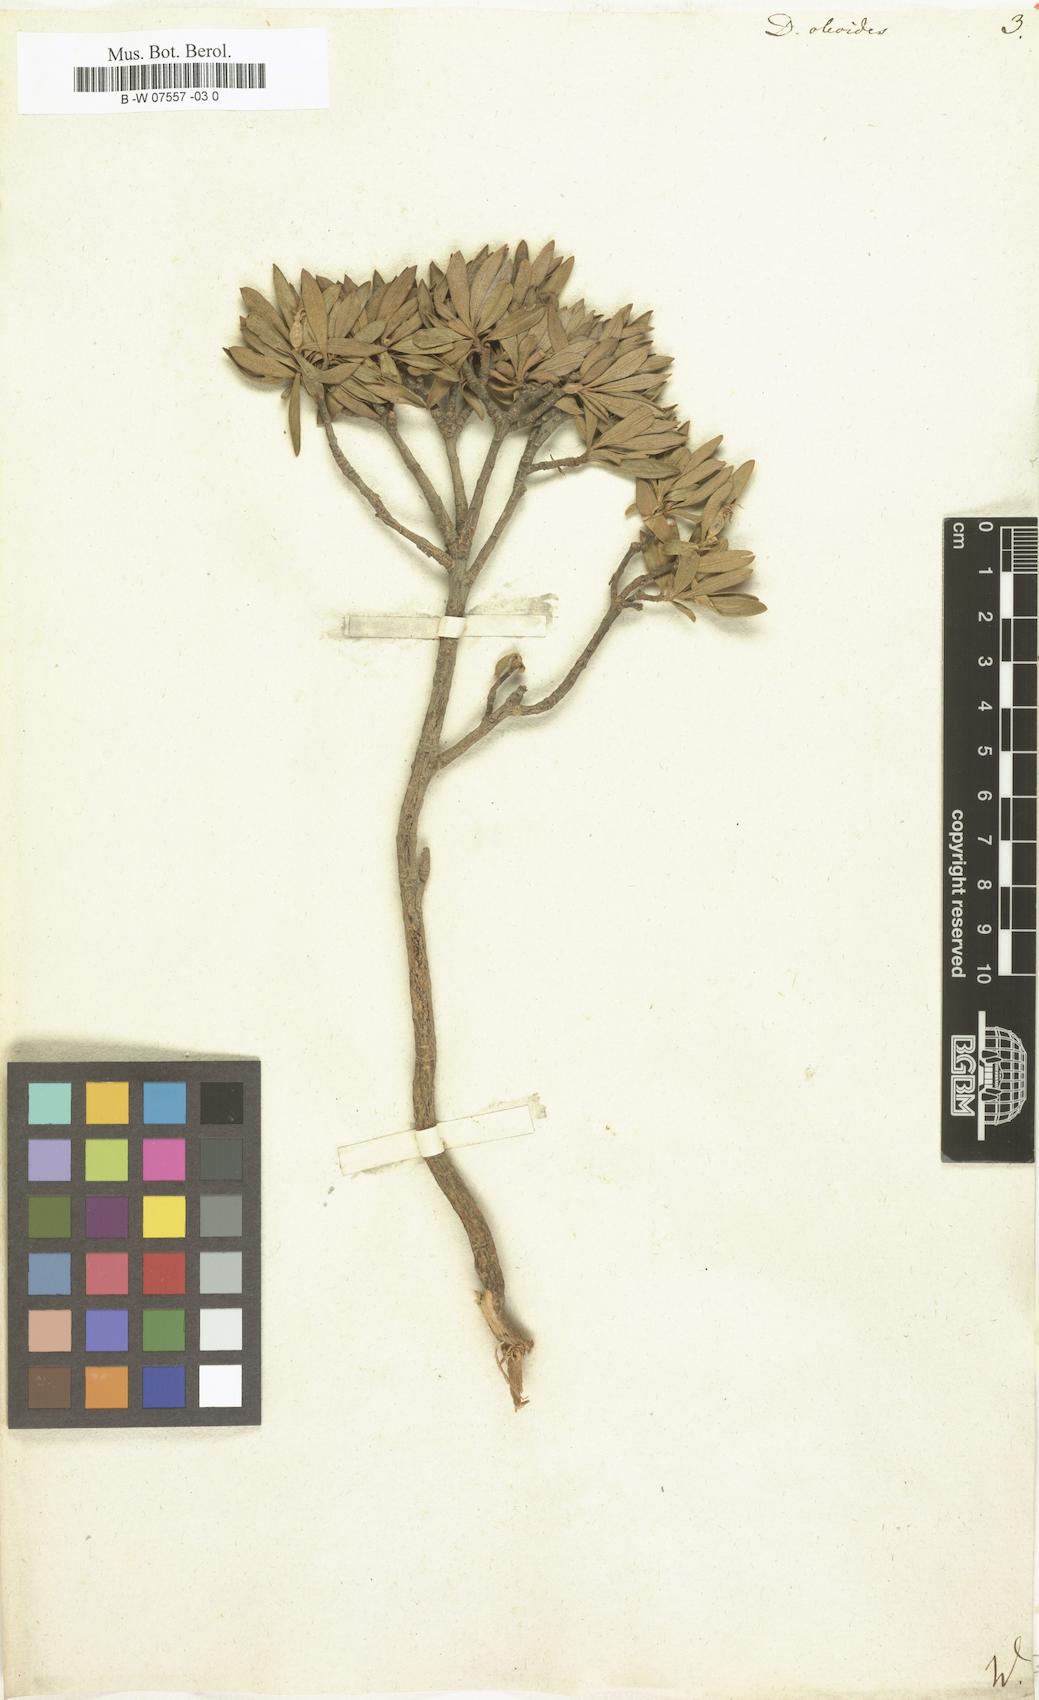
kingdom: Plantae
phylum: Tracheophyta
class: Magnoliopsida
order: Malvales
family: Thymelaeaceae
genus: Daphne
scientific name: Daphne oleoides
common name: Spurge-olive
